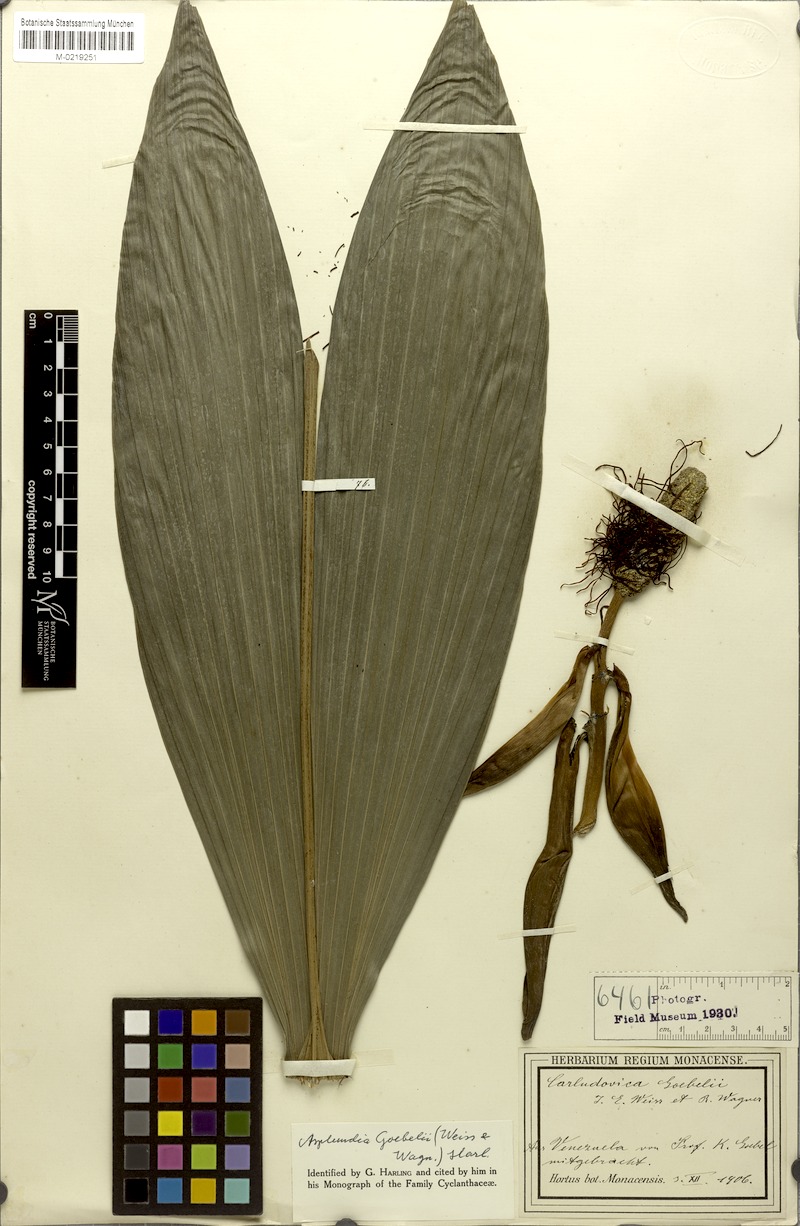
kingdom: Plantae
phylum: Tracheophyta
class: Liliopsida
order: Pandanales
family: Cyclanthaceae
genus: Asplundia
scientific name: Asplundia goebelii
